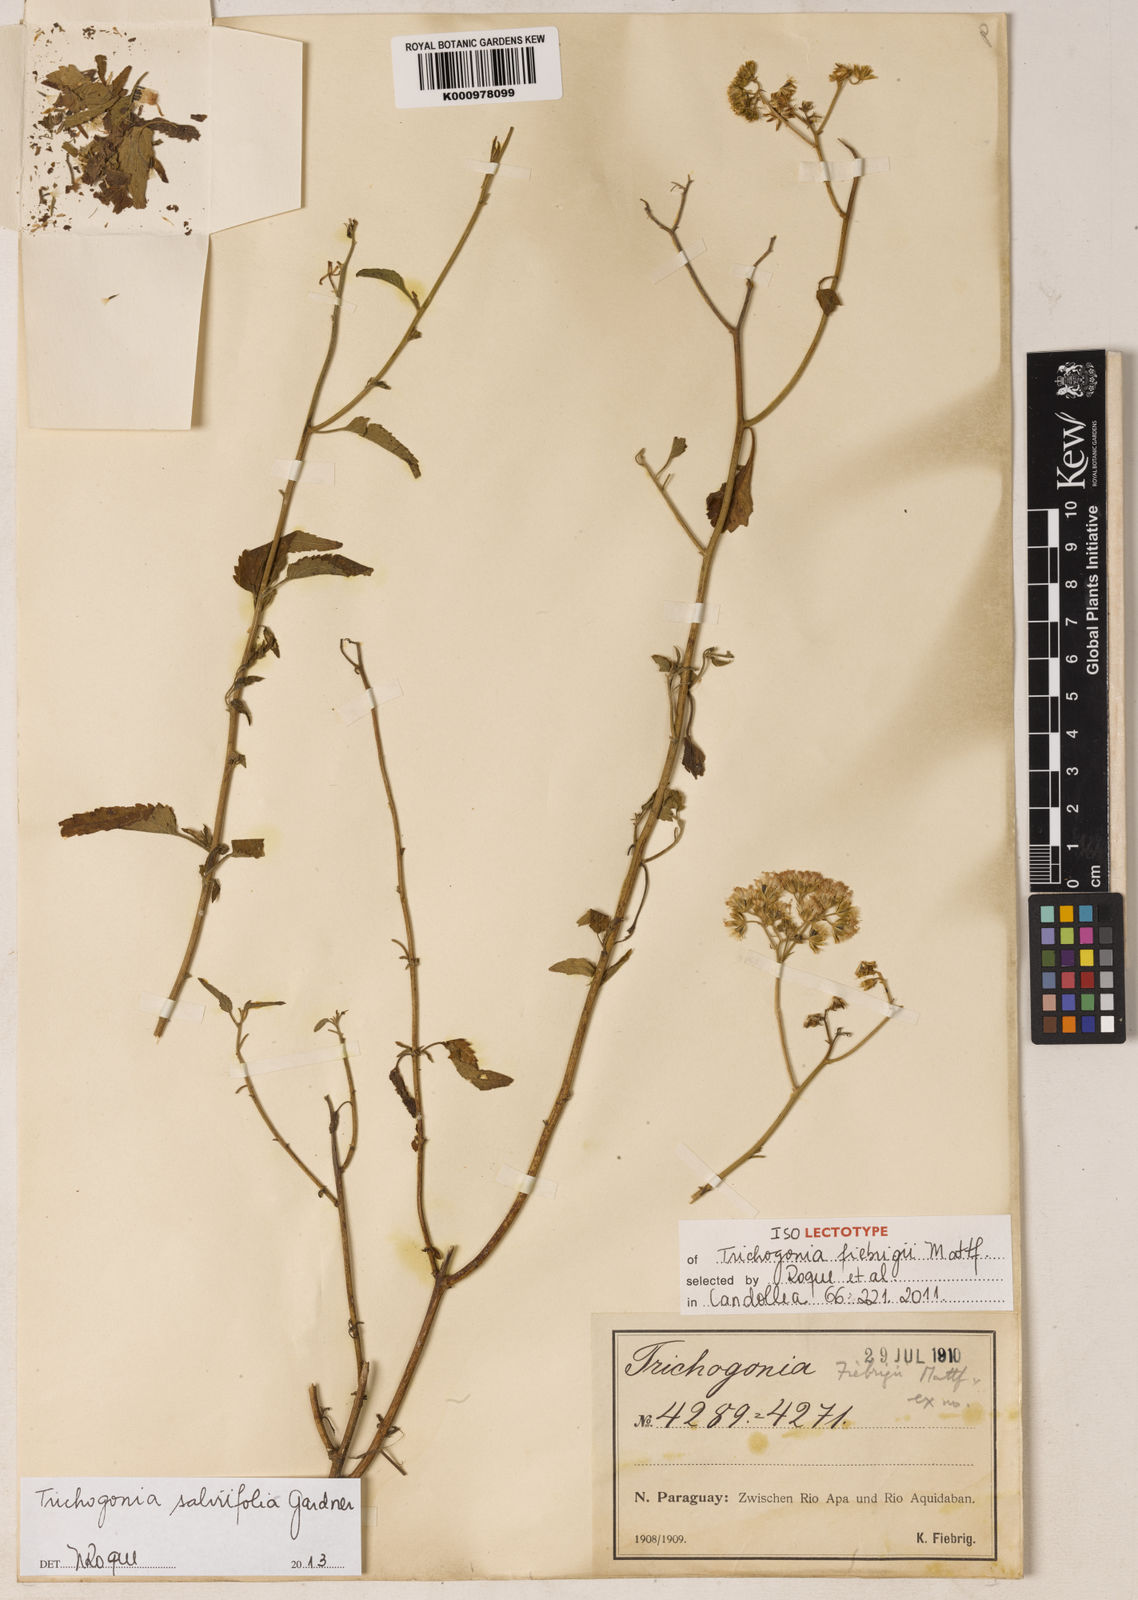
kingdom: Plantae
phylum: Tracheophyta
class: Magnoliopsida
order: Asterales
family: Asteraceae
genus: Trichogonia
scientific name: Trichogonia salviifolia
